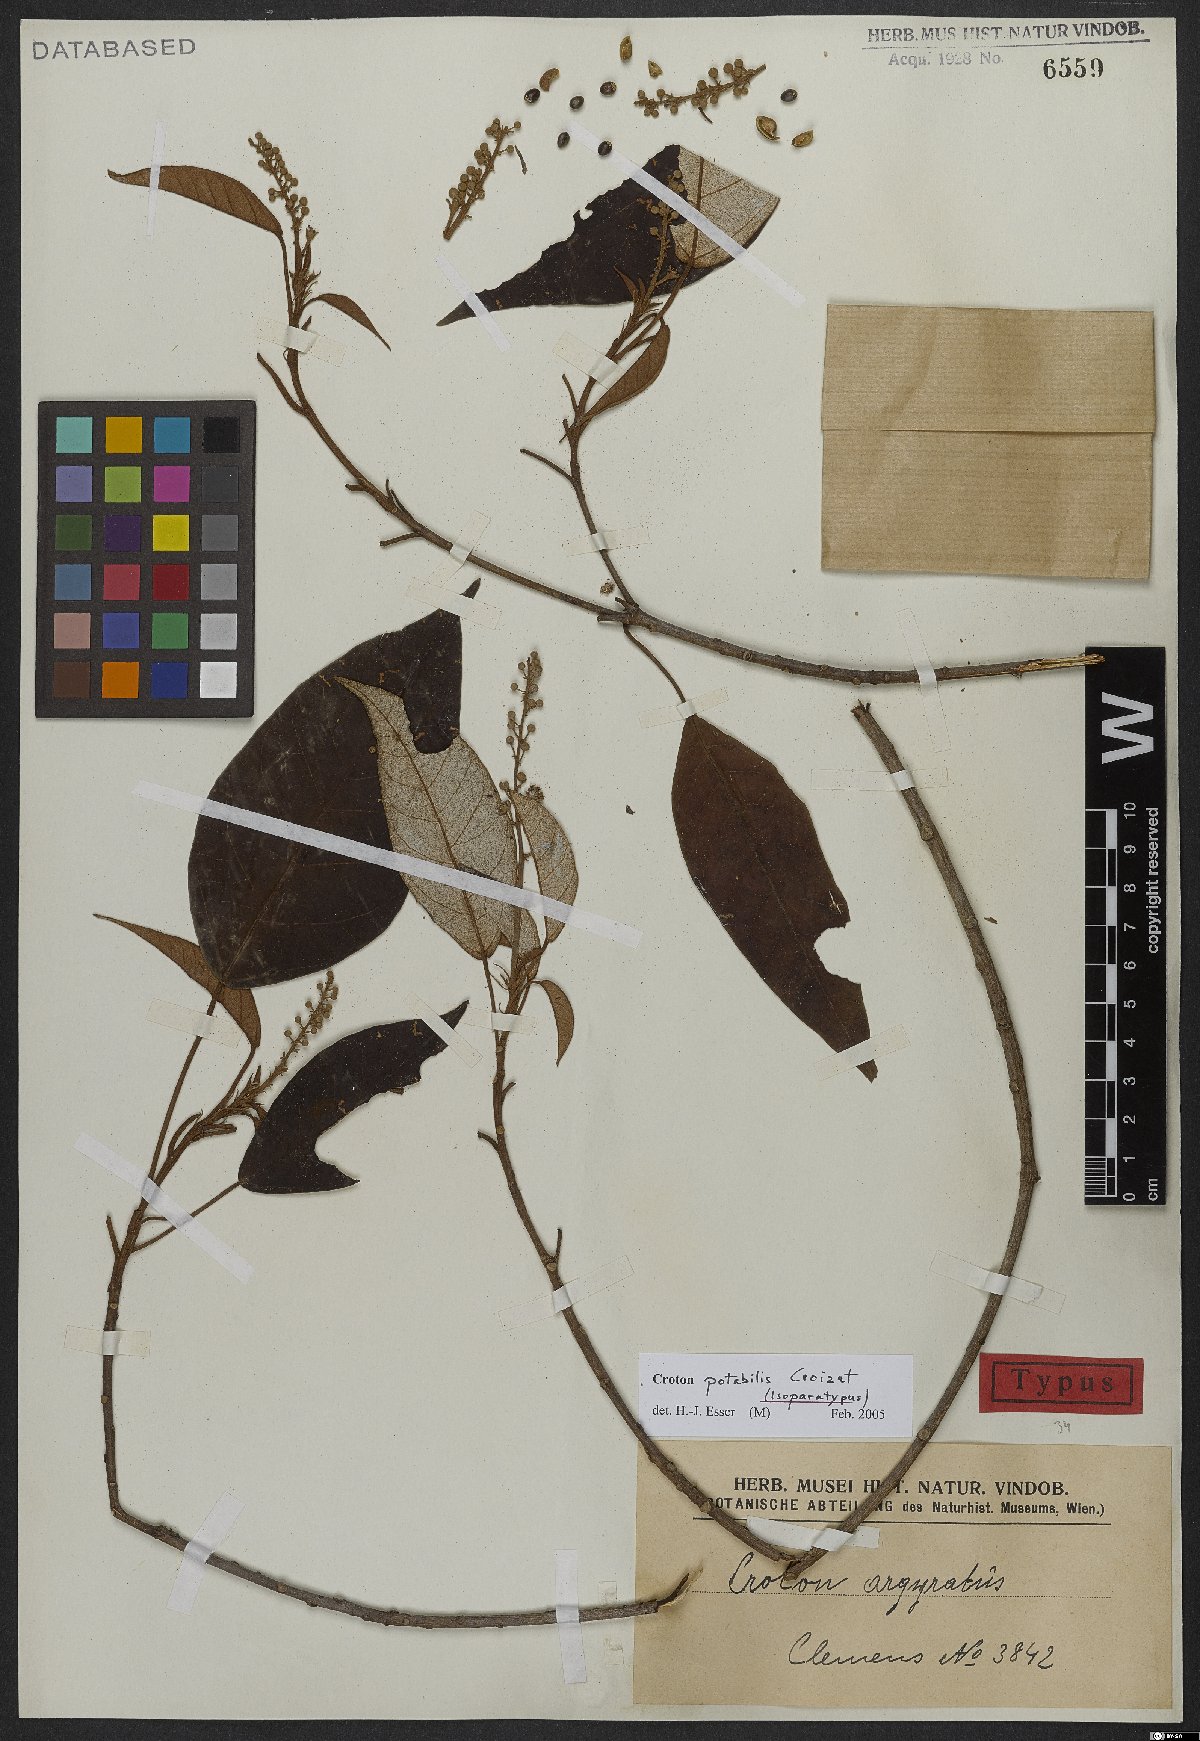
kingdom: Plantae
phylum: Tracheophyta
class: Magnoliopsida
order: Malpighiales
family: Euphorbiaceae
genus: Croton
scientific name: Croton potabilis
